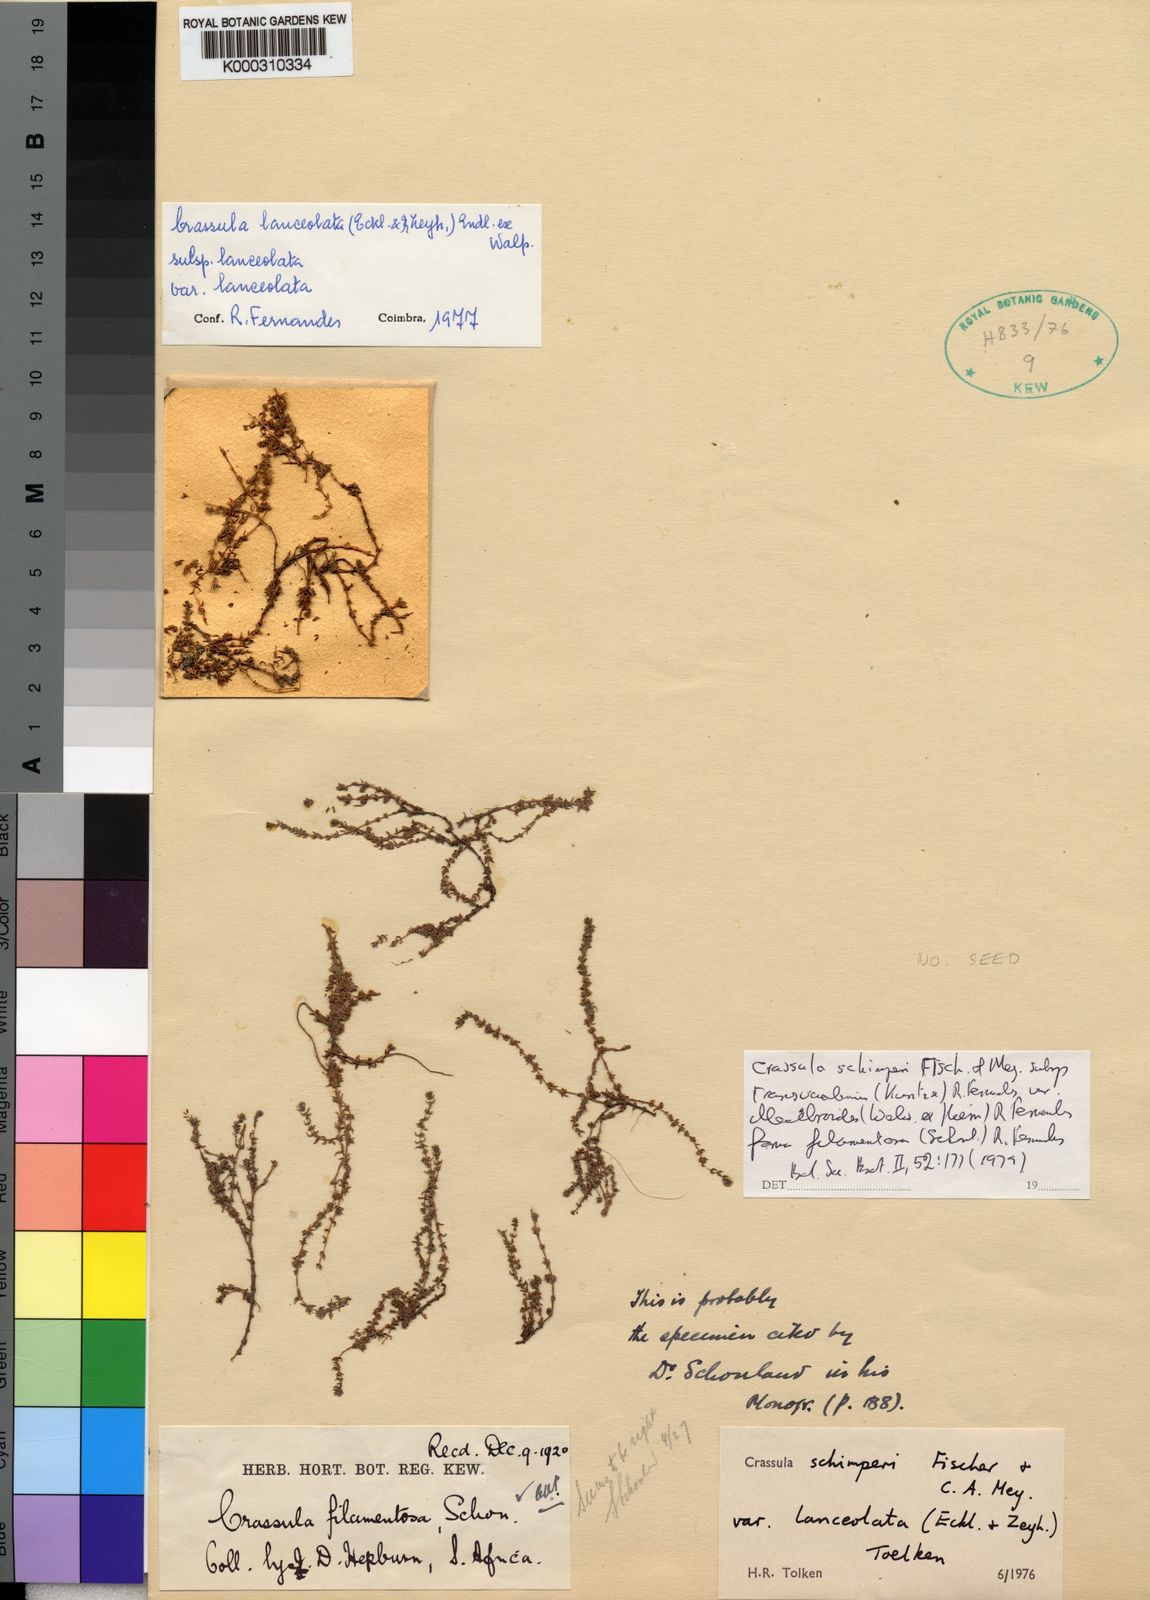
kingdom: Plantae
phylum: Tracheophyta
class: Magnoliopsida
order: Saxifragales
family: Crassulaceae
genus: Crassula
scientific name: Crassula schimperi
